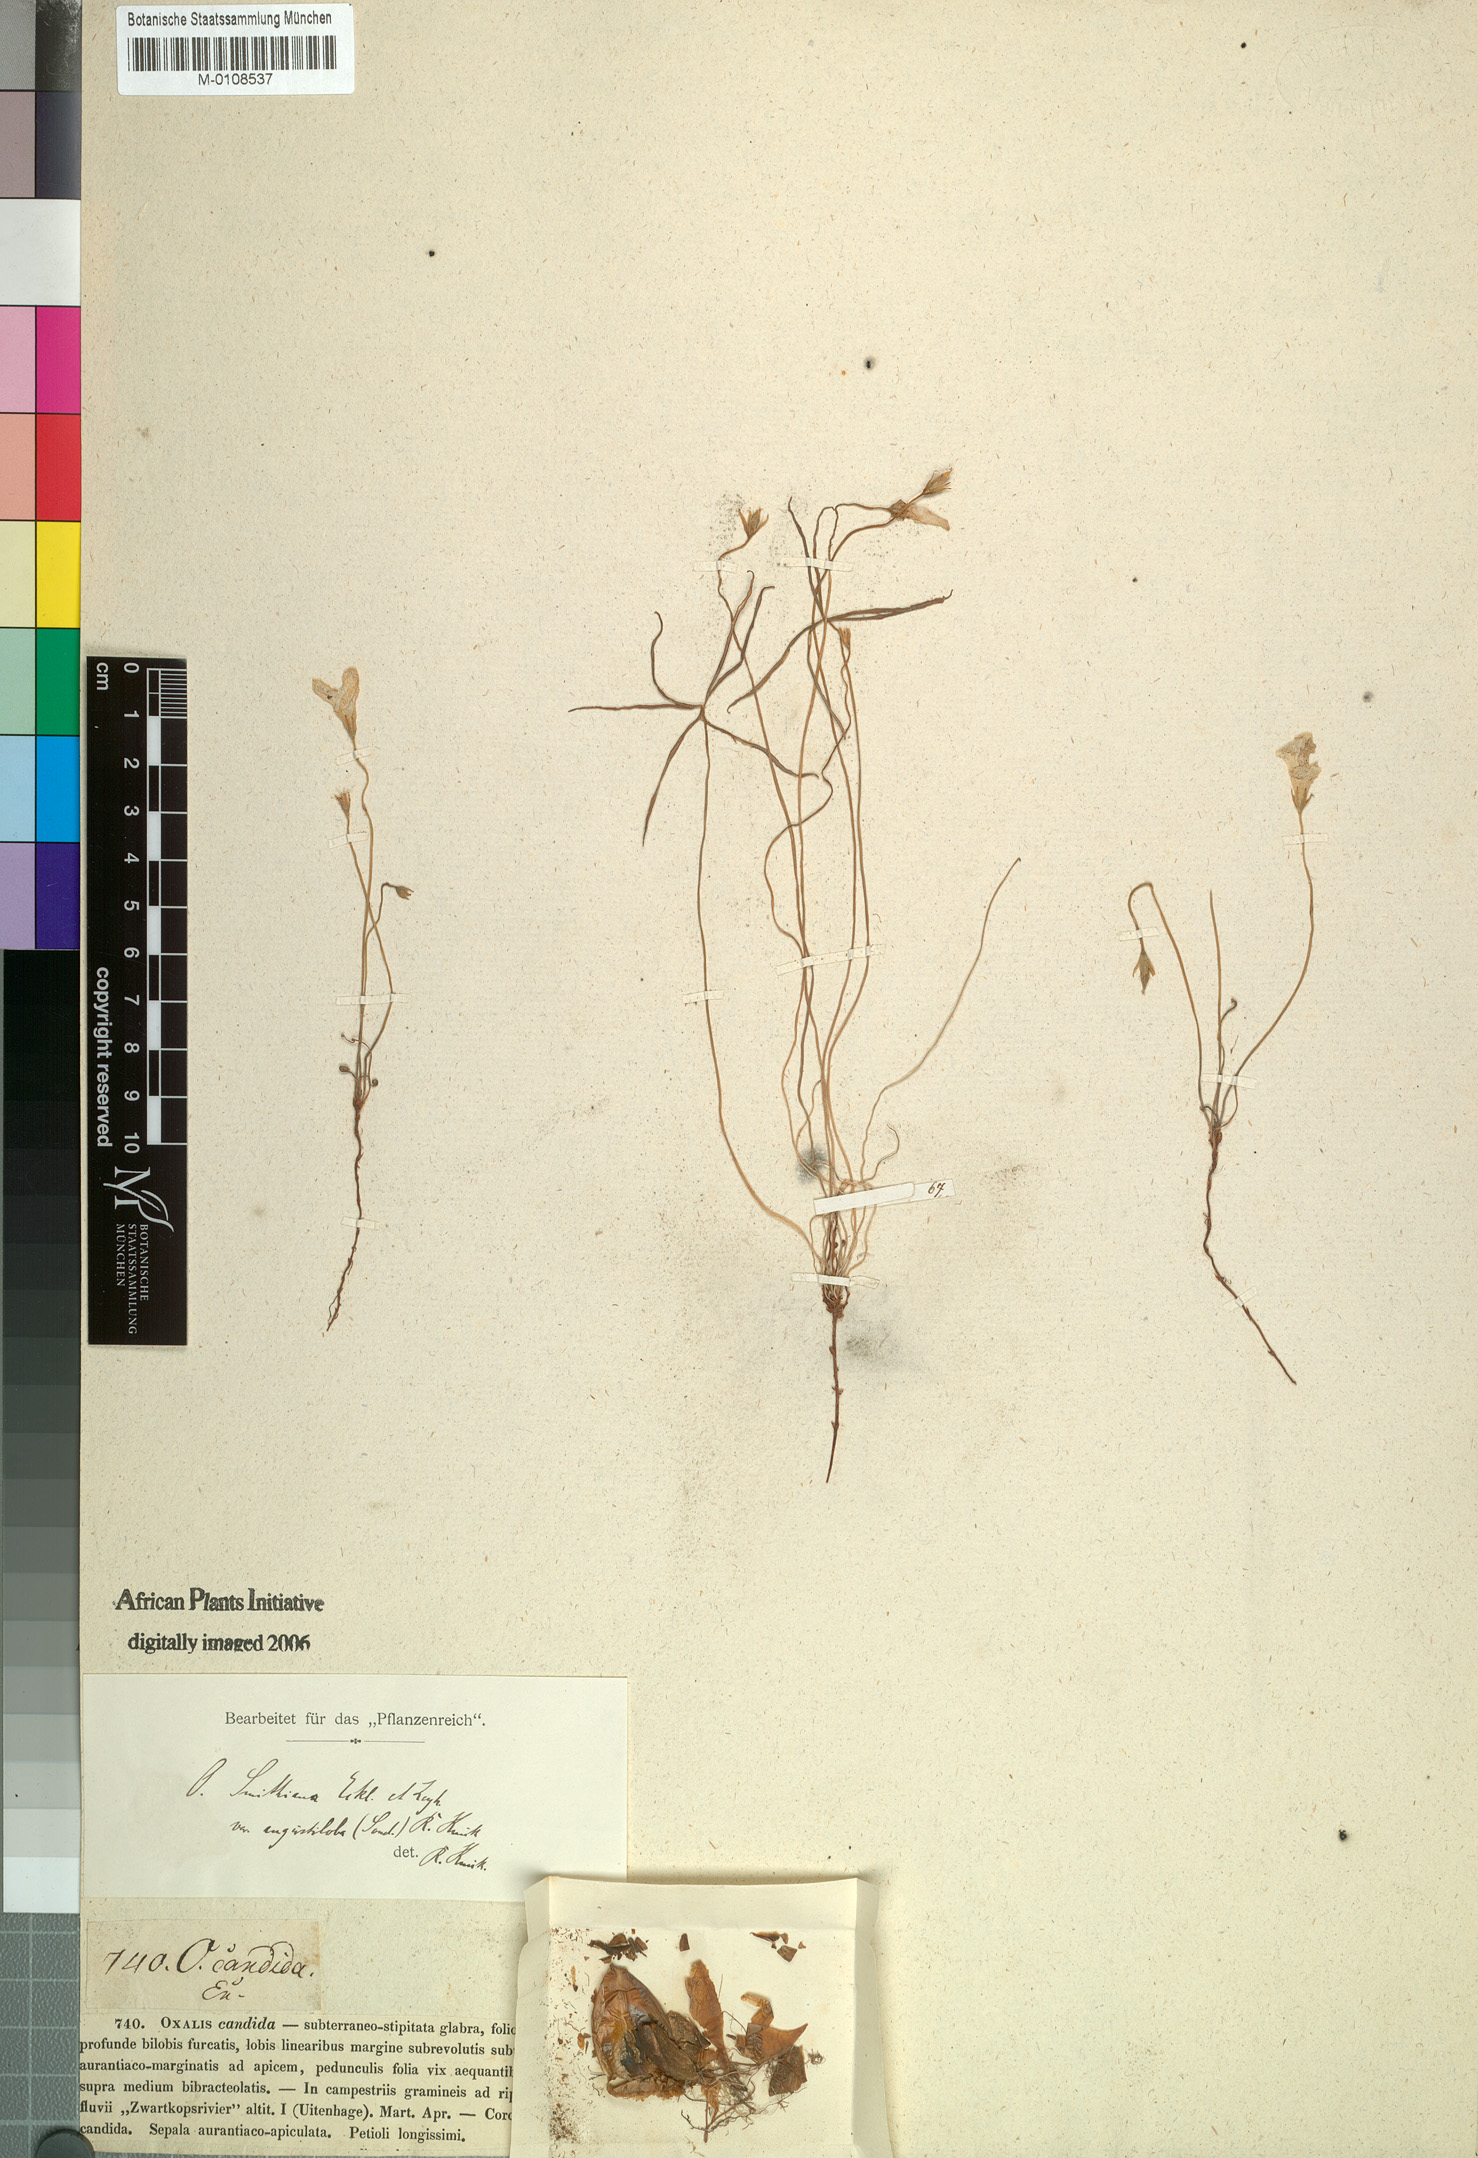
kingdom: Plantae
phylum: Tracheophyta
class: Magnoliopsida
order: Oxalidales
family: Oxalidaceae
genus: Oxalis
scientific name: Oxalis smithiana
